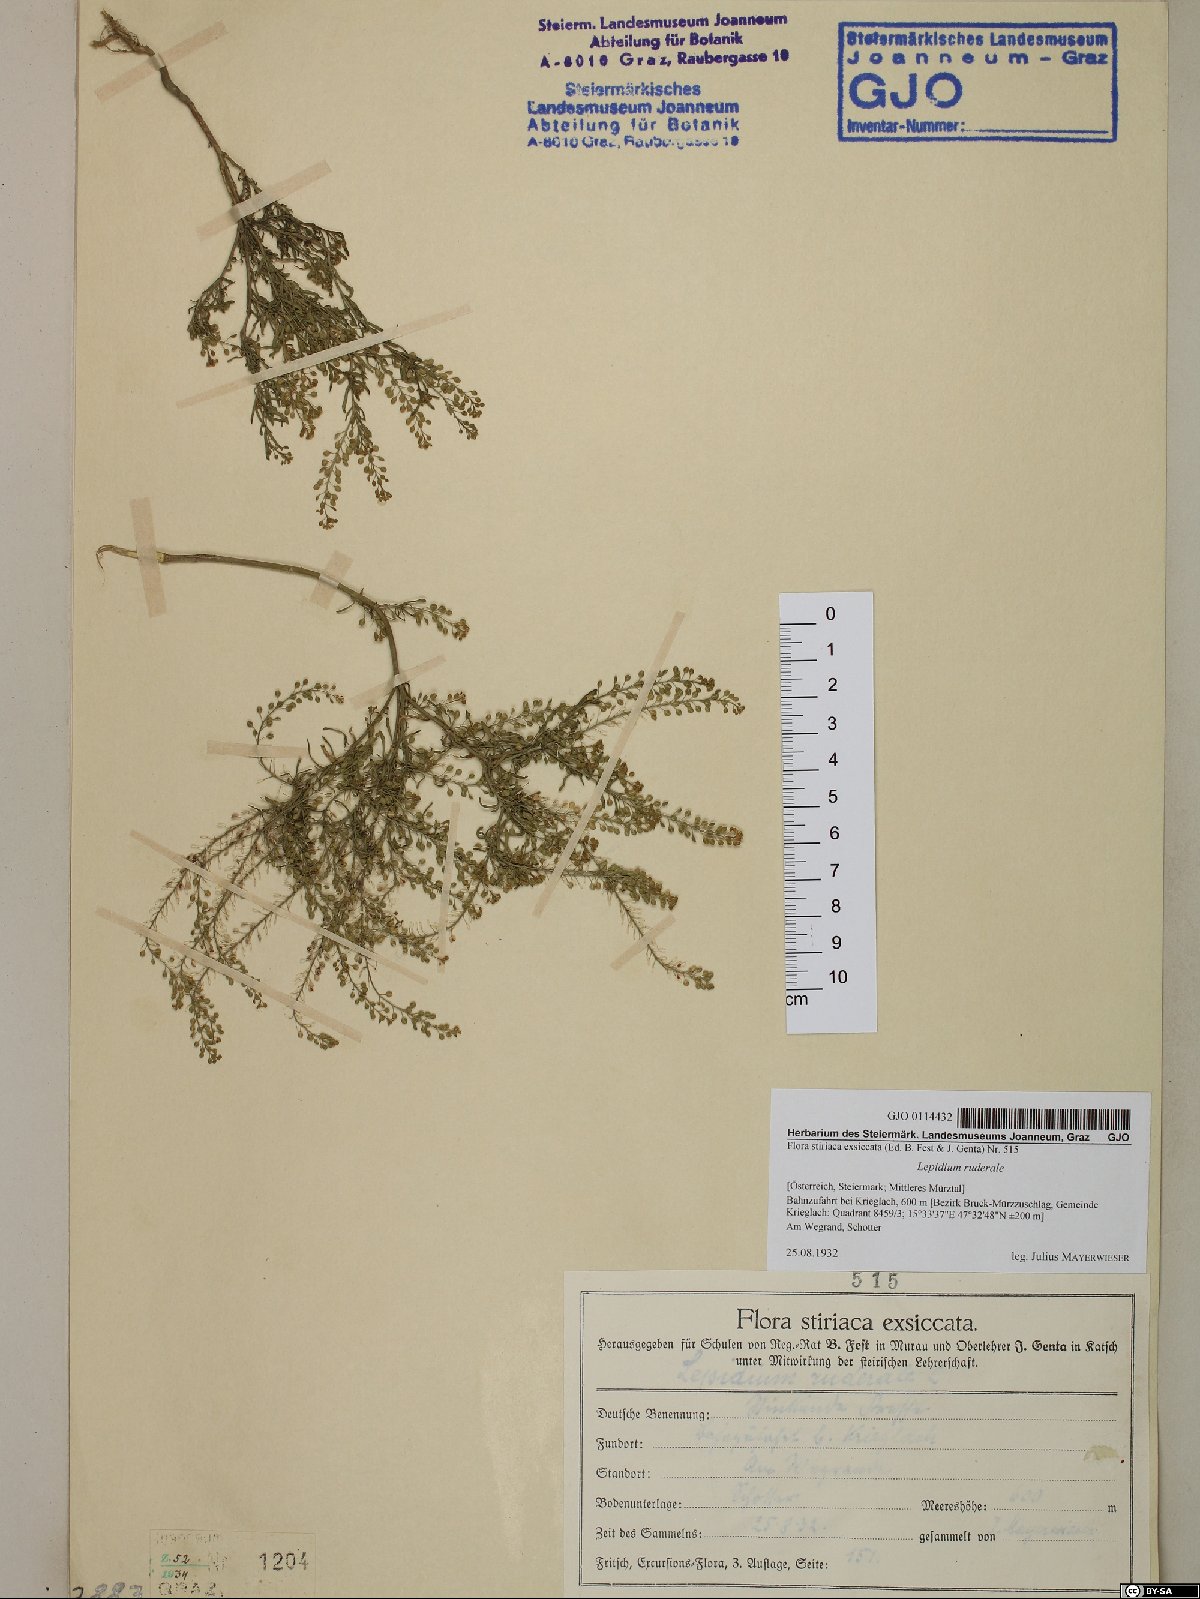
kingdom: Plantae
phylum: Tracheophyta
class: Magnoliopsida
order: Brassicales
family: Brassicaceae
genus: Lepidium
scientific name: Lepidium ruderale
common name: Narrow-leaved pepperwort
